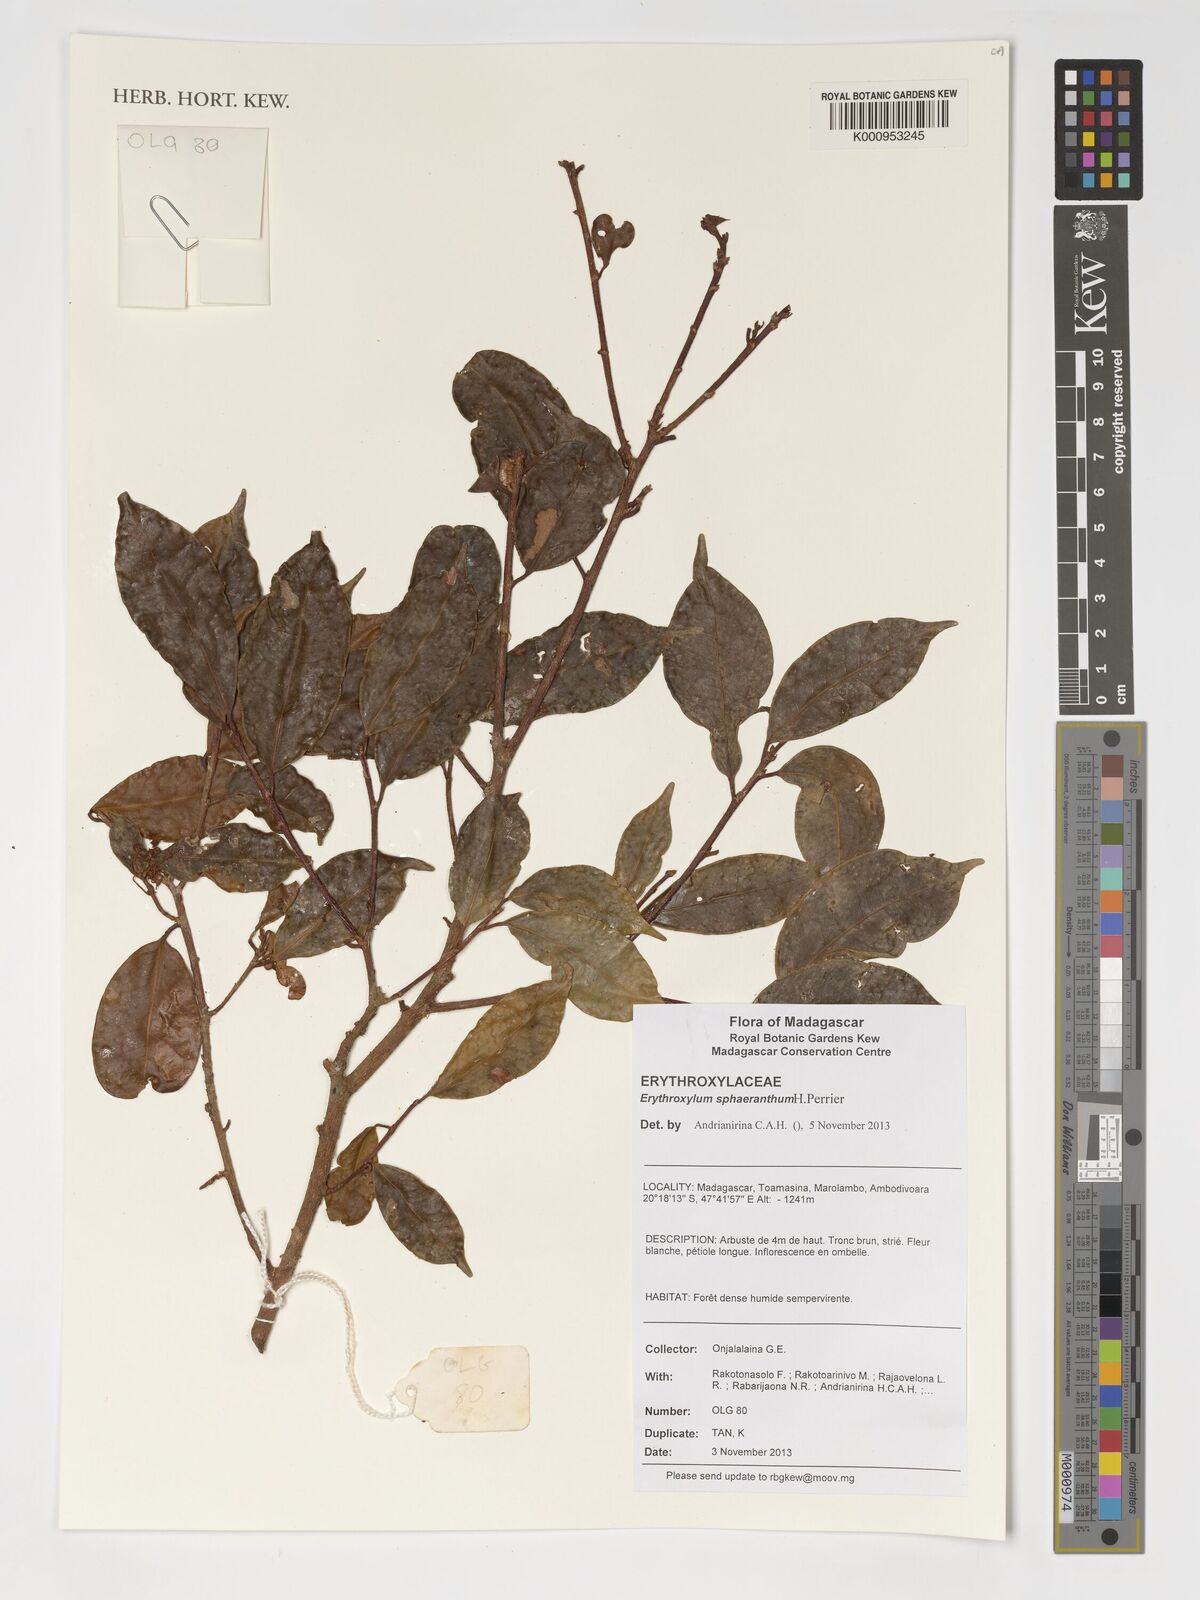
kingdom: Plantae
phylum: Tracheophyta
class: Magnoliopsida
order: Malpighiales
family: Erythroxylaceae
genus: Erythroxylum
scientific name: Erythroxylum sphaeranthum
